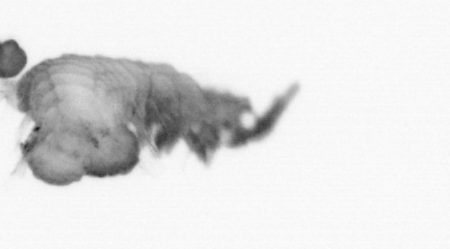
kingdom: Animalia
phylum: Annelida
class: Polychaeta
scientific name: Polychaeta
